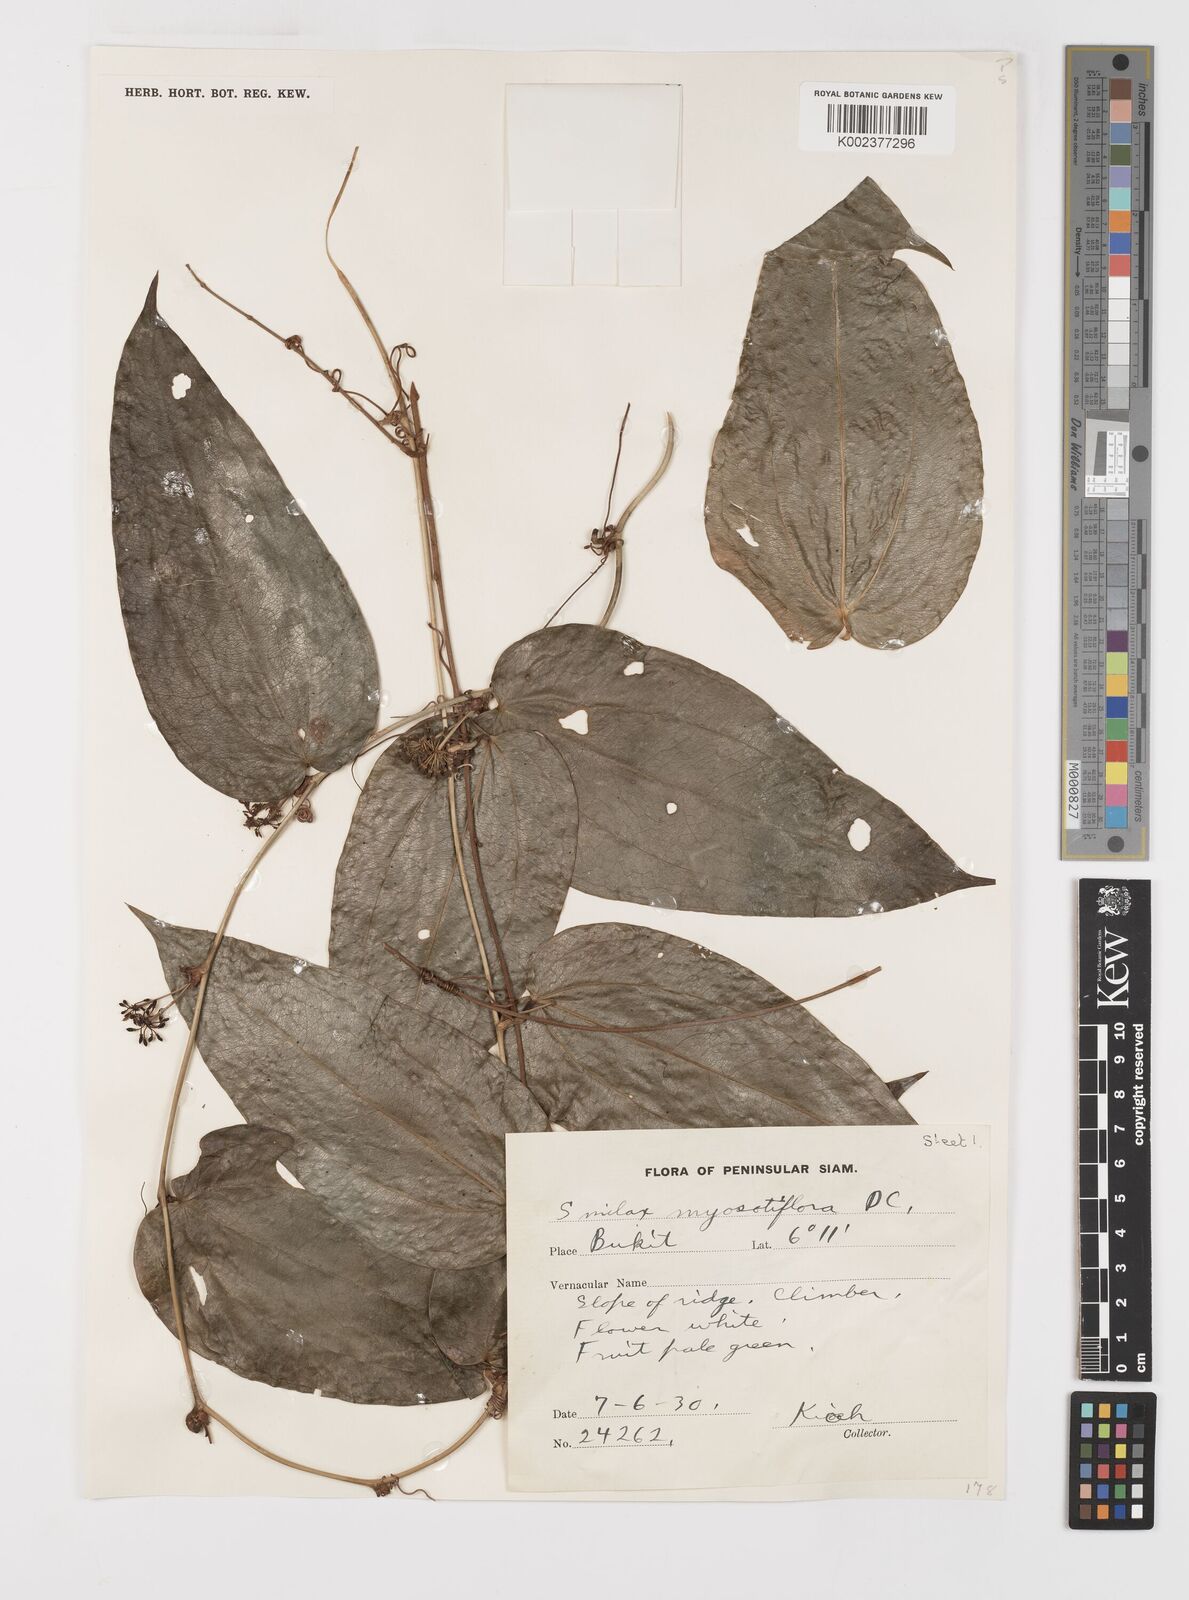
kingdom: Plantae
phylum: Tracheophyta
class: Liliopsida
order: Liliales
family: Smilacaceae
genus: Smilax
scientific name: Smilax myosotiflora
